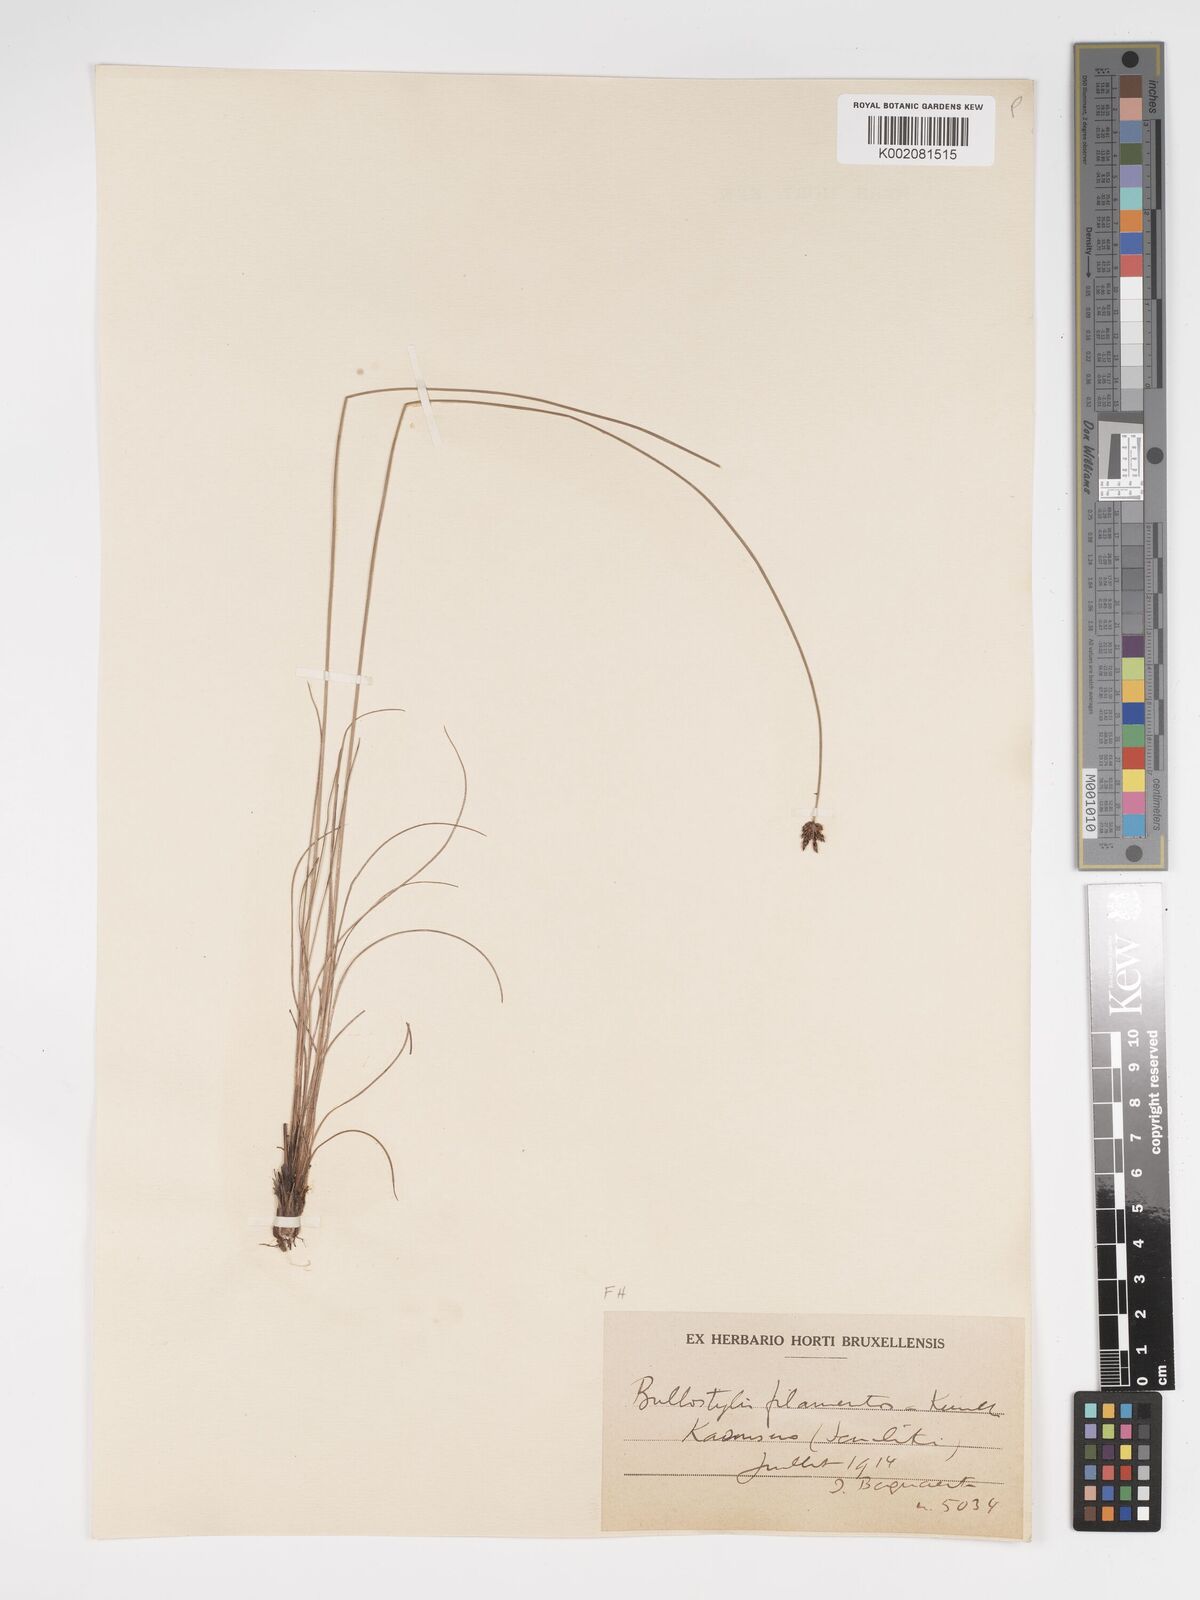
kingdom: Plantae
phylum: Tracheophyta
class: Liliopsida
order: Poales
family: Cyperaceae
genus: Bulbostylis
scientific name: Bulbostylis scabricaulis
